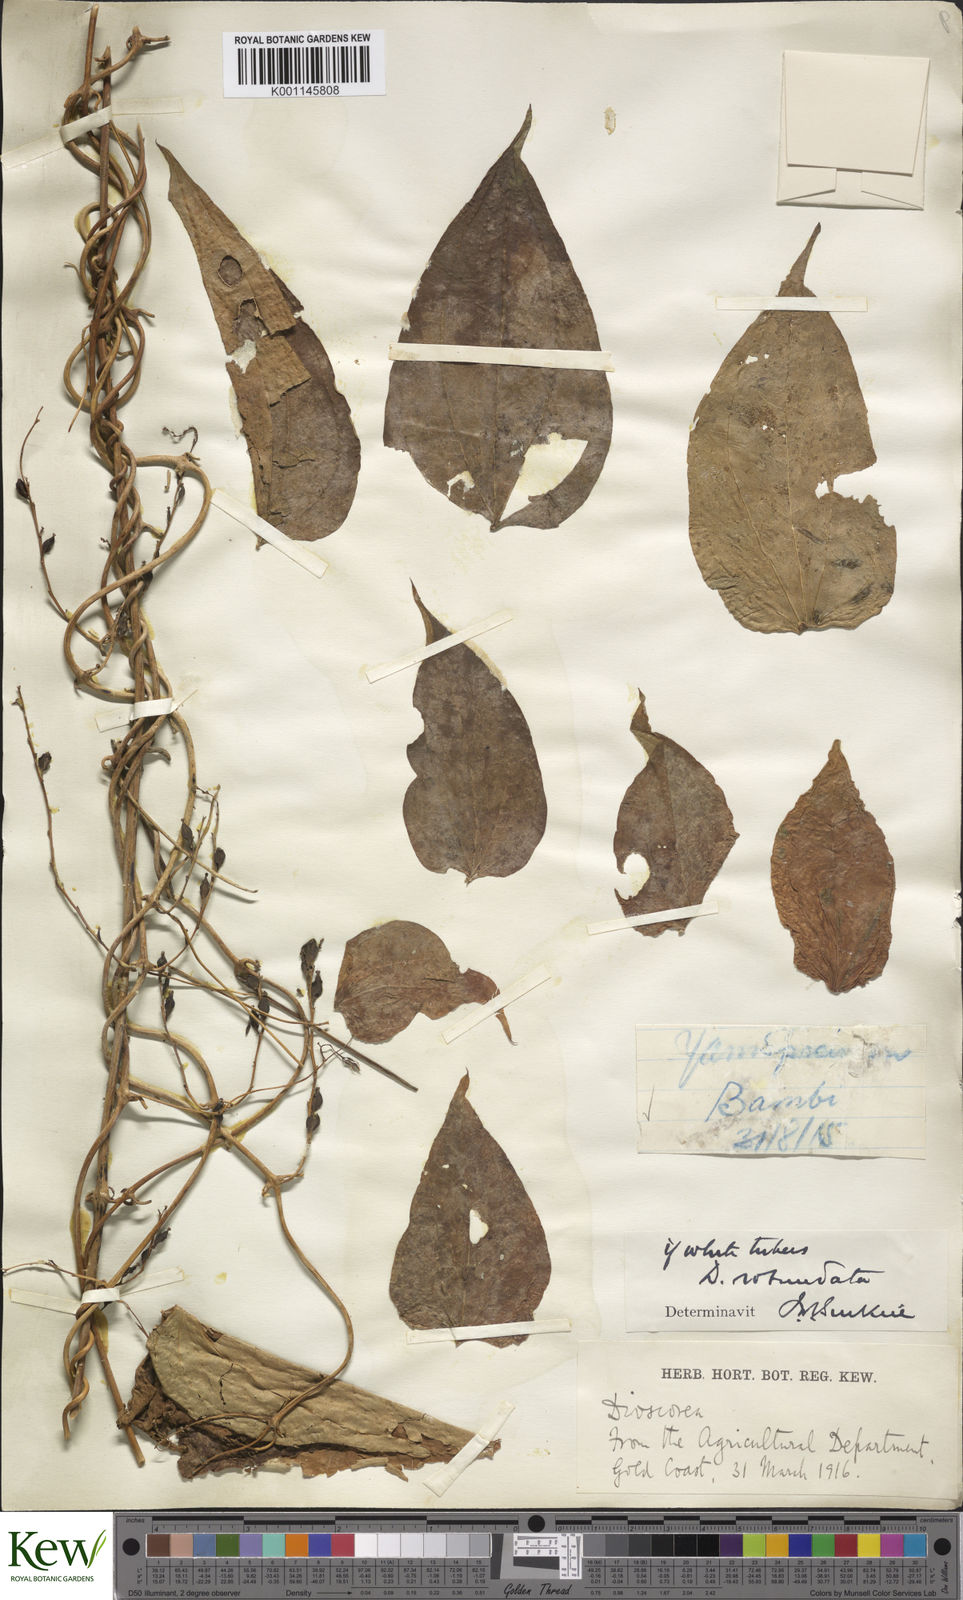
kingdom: Plantae
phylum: Tracheophyta
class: Liliopsida
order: Dioscoreales
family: Dioscoreaceae
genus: Dioscorea
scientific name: Dioscorea cayenensis
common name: Attoto yam
